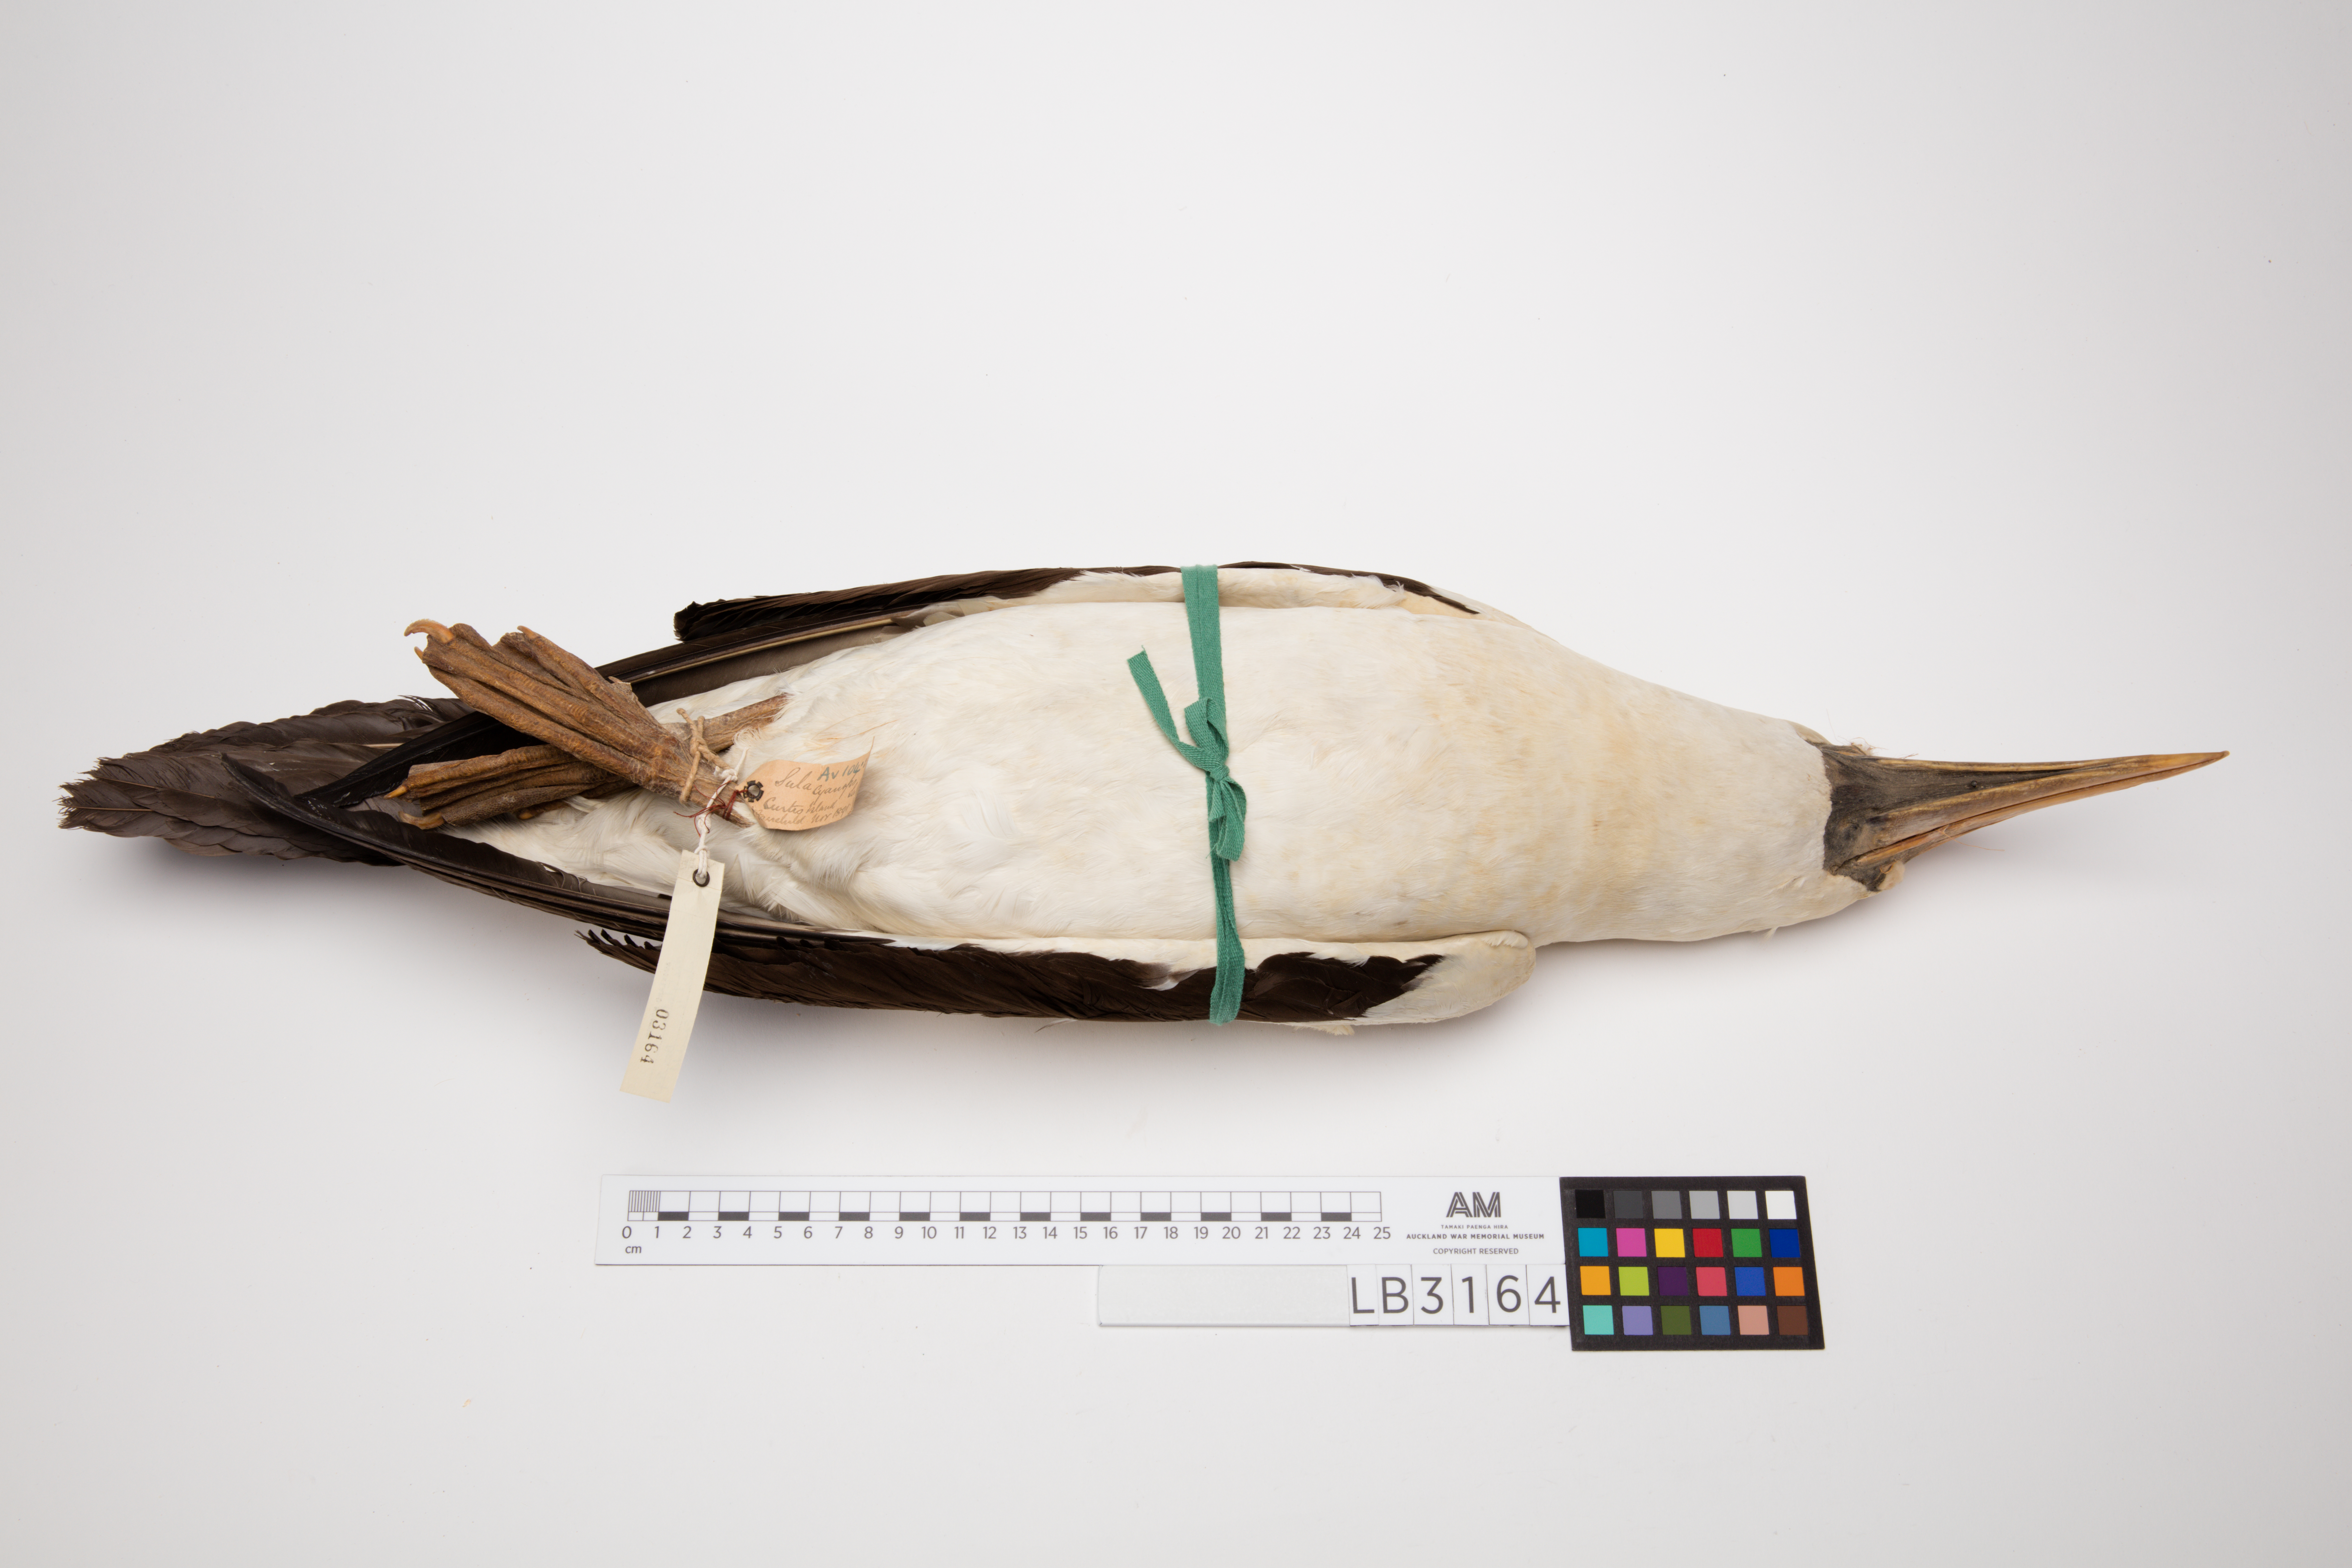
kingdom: Animalia
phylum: Chordata
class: Aves
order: Suliformes
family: Sulidae
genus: Sula
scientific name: Sula dactylatra
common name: Masked booby
